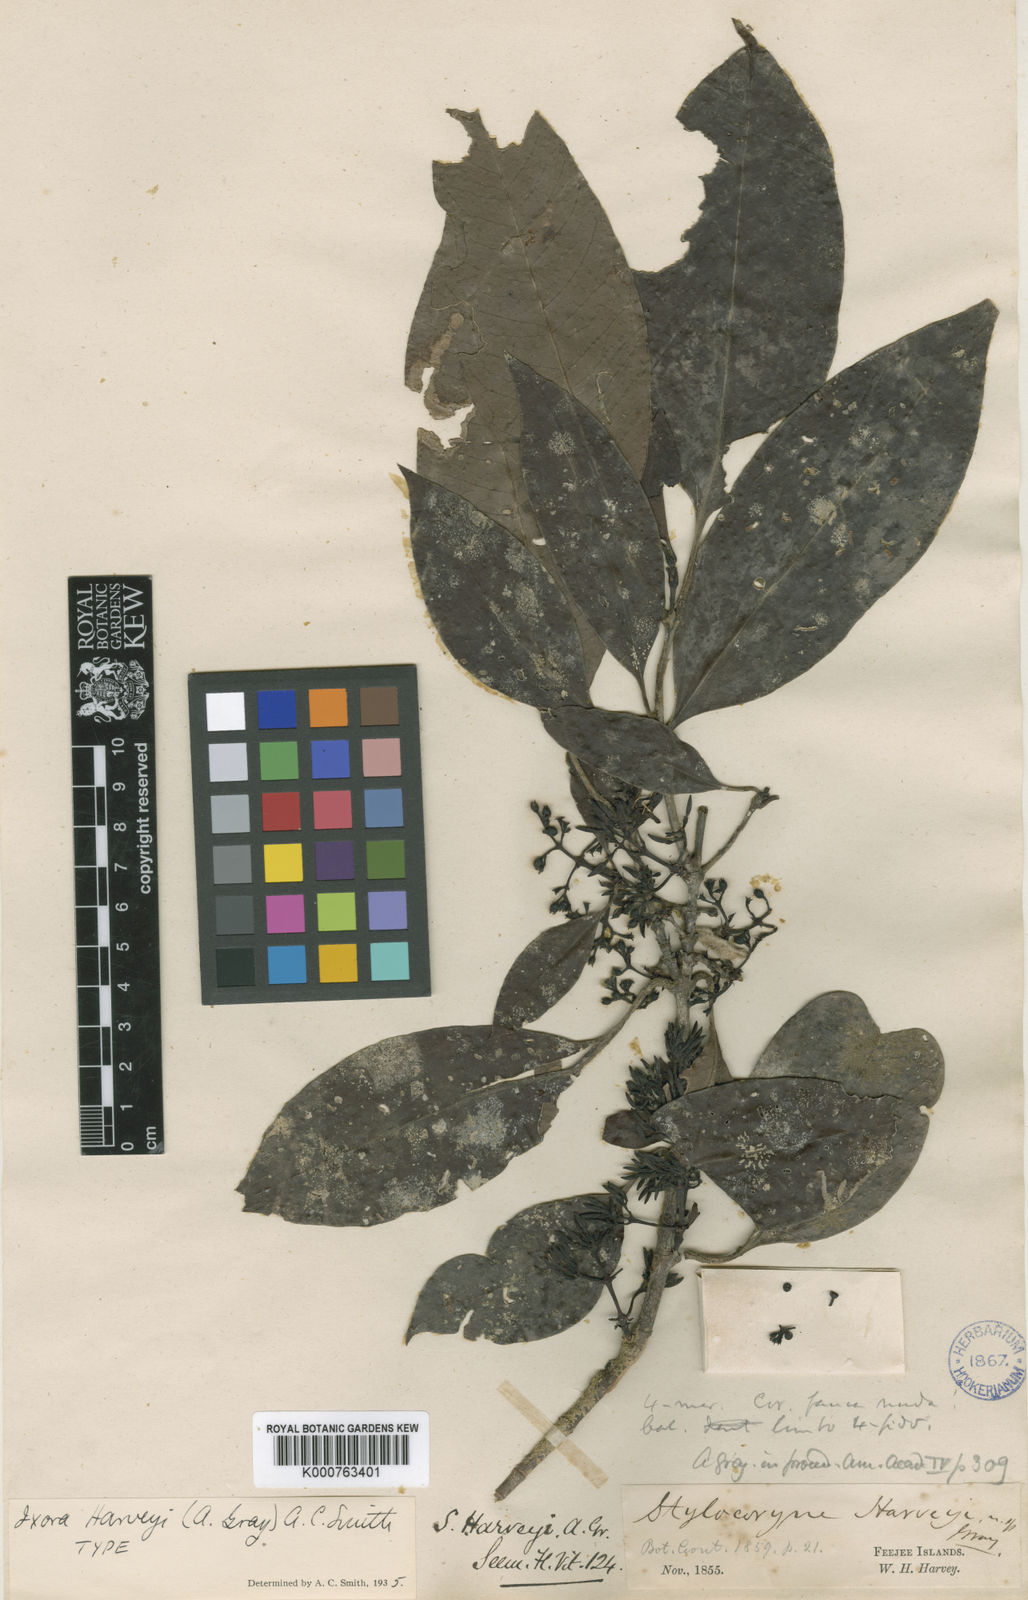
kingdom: Plantae
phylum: Tracheophyta
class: Magnoliopsida
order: Gentianales
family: Rubiaceae
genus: Ixora
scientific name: Ixora harveyi
